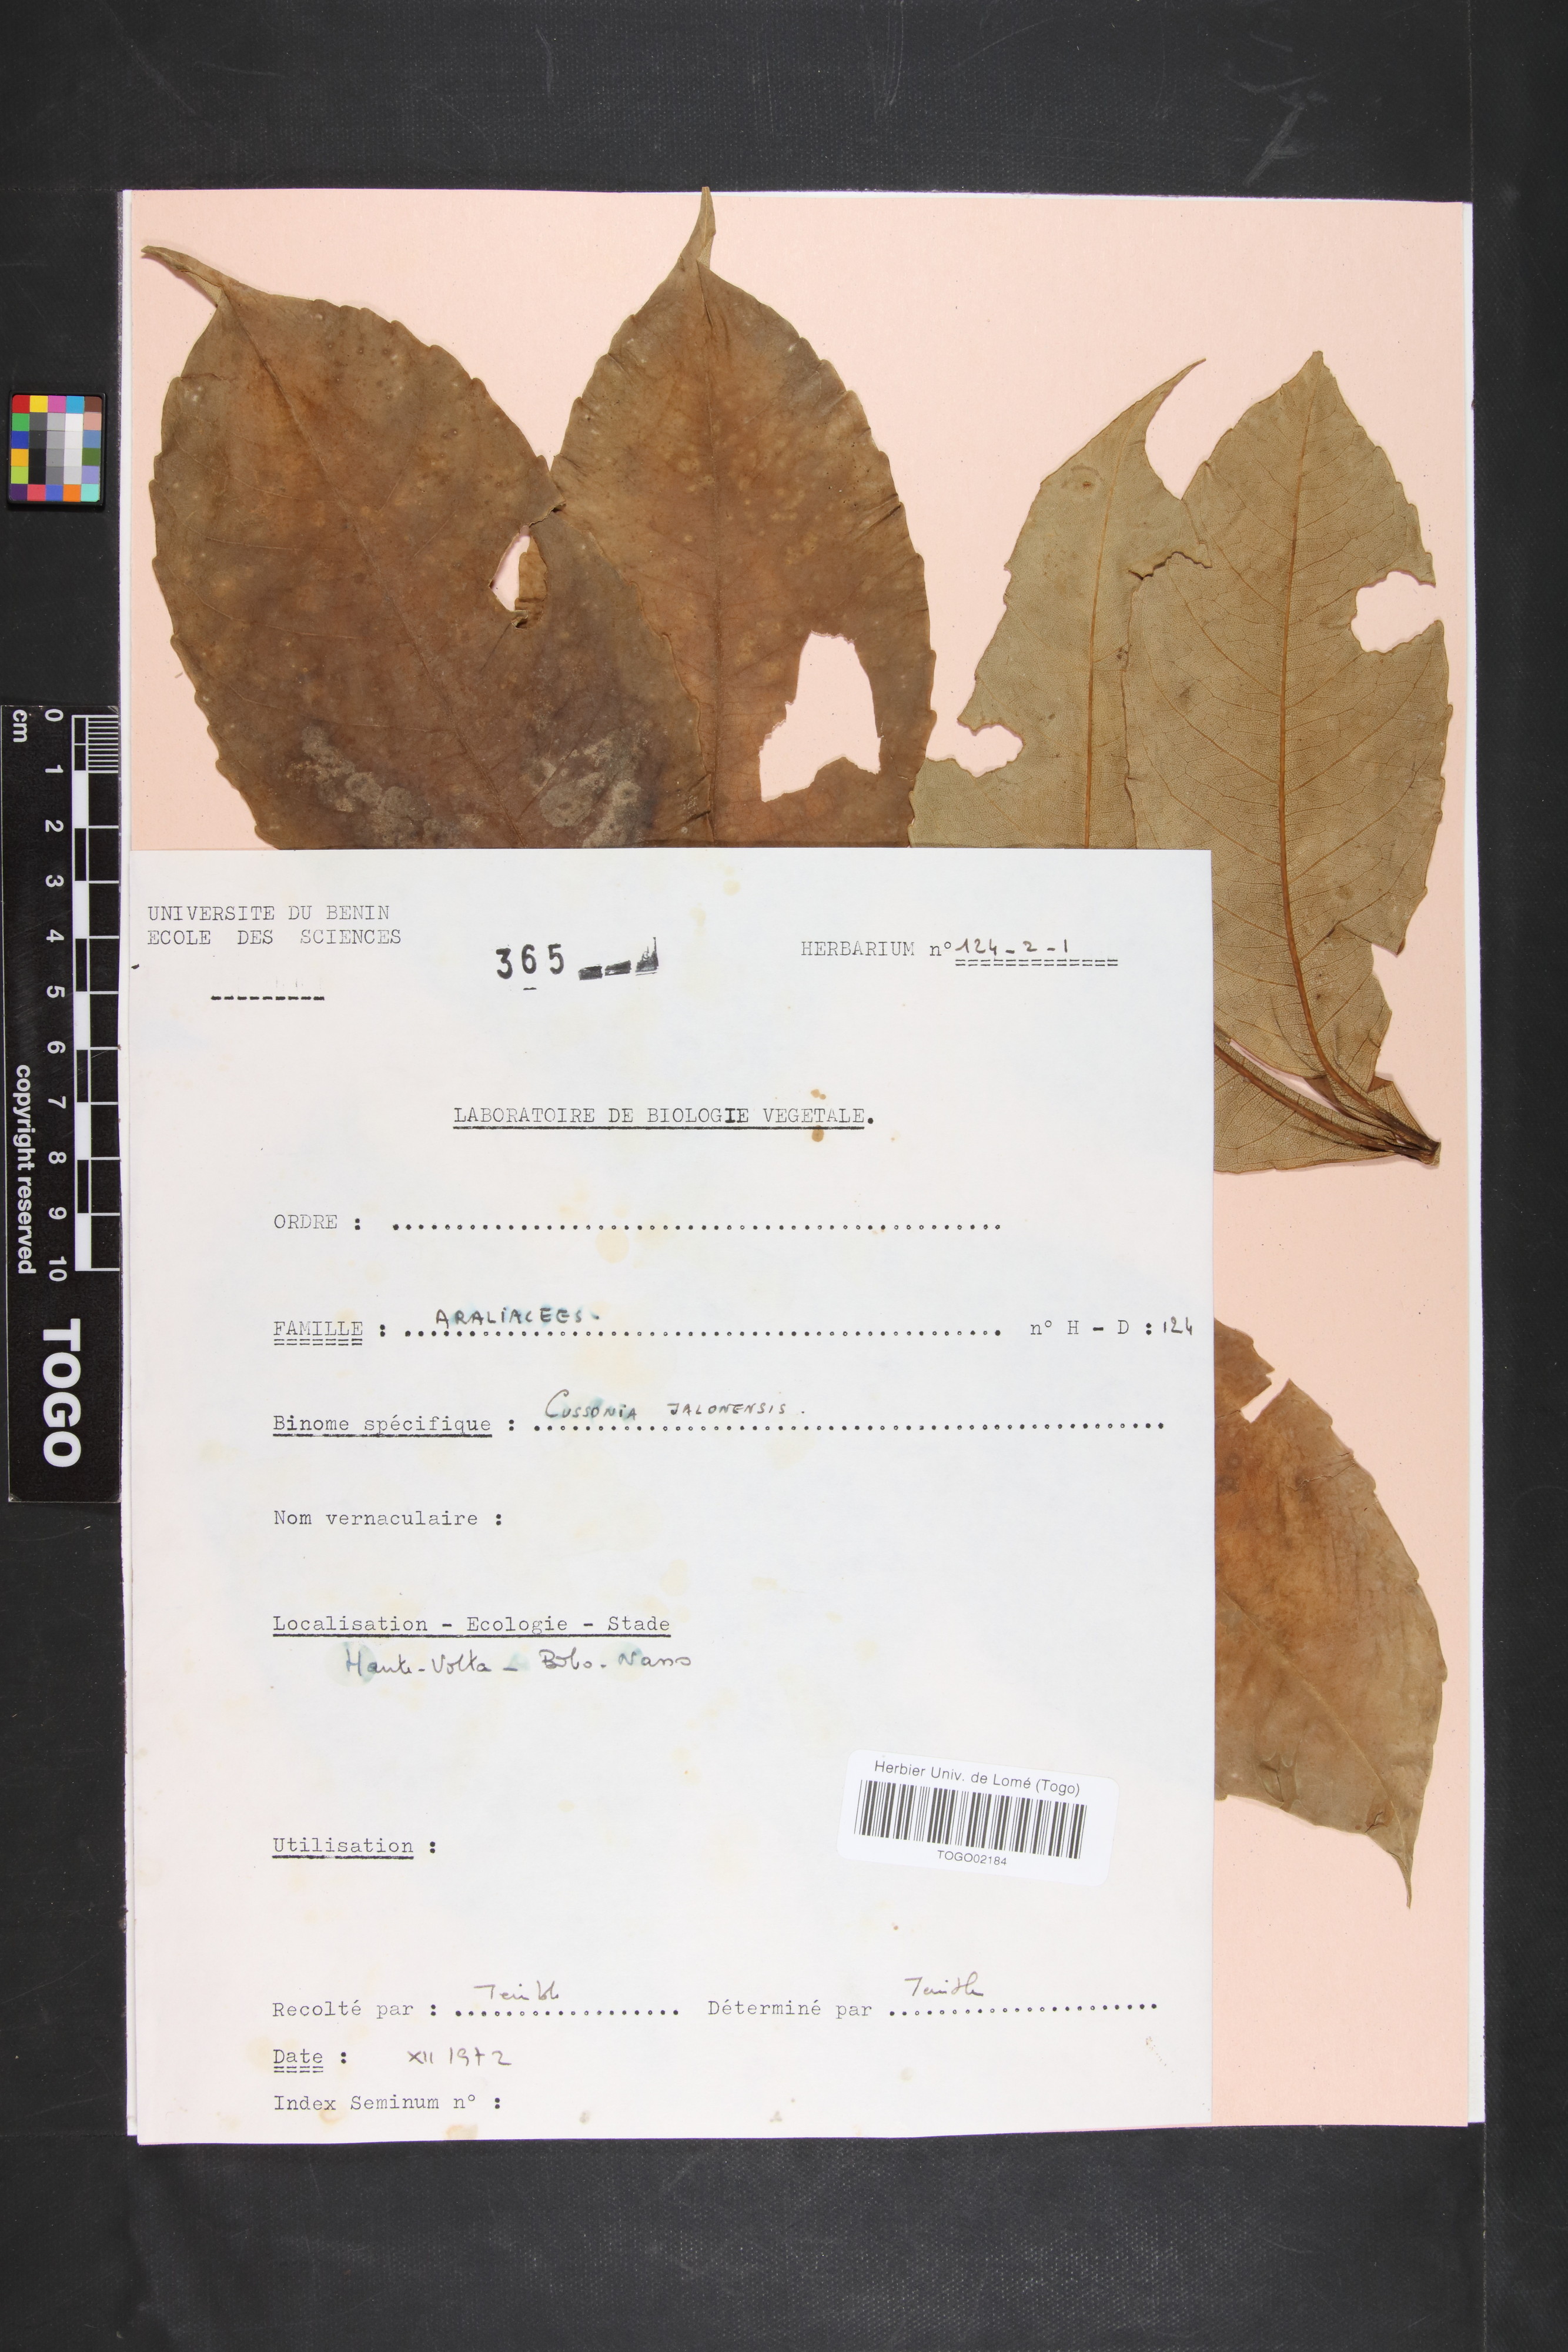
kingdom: Plantae
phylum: Tracheophyta
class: Magnoliopsida
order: Apiales
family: Araliaceae
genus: Cussonia
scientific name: Cussonia
